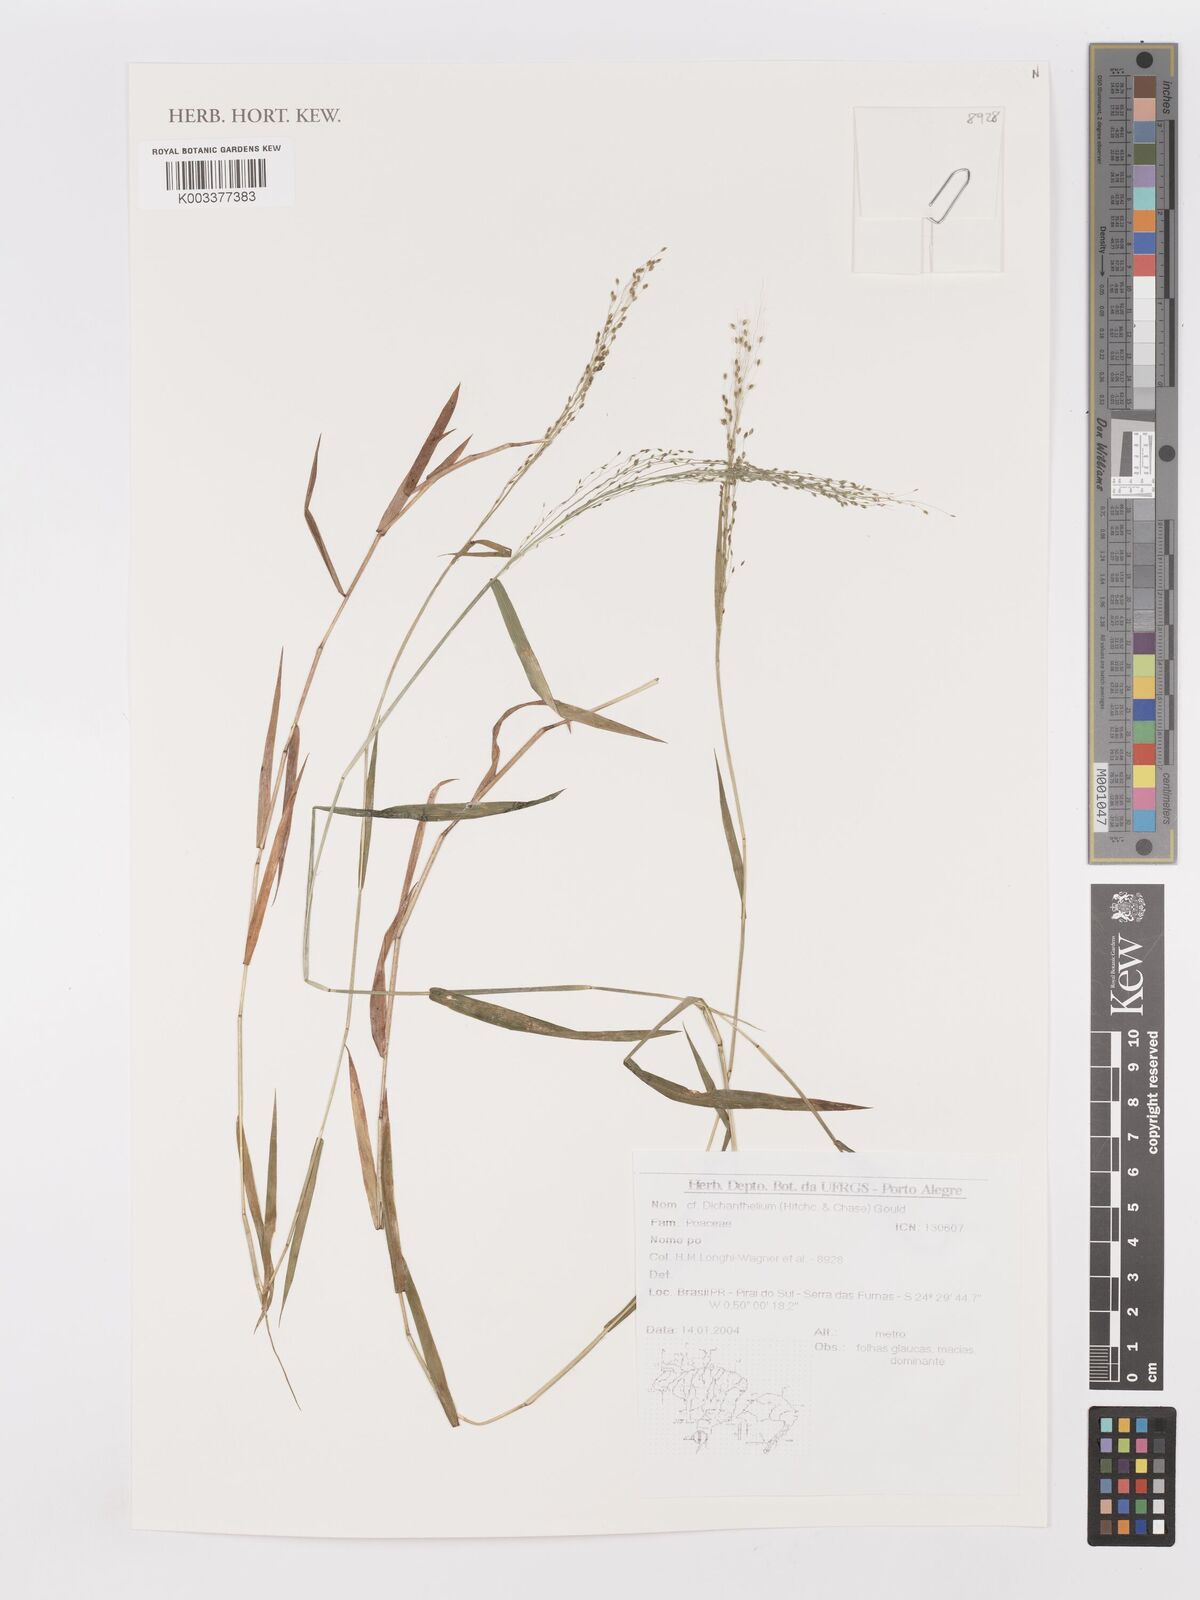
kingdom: Plantae
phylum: Tracheophyta
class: Liliopsida
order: Poales
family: Poaceae
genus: Panicum
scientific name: Panicum
